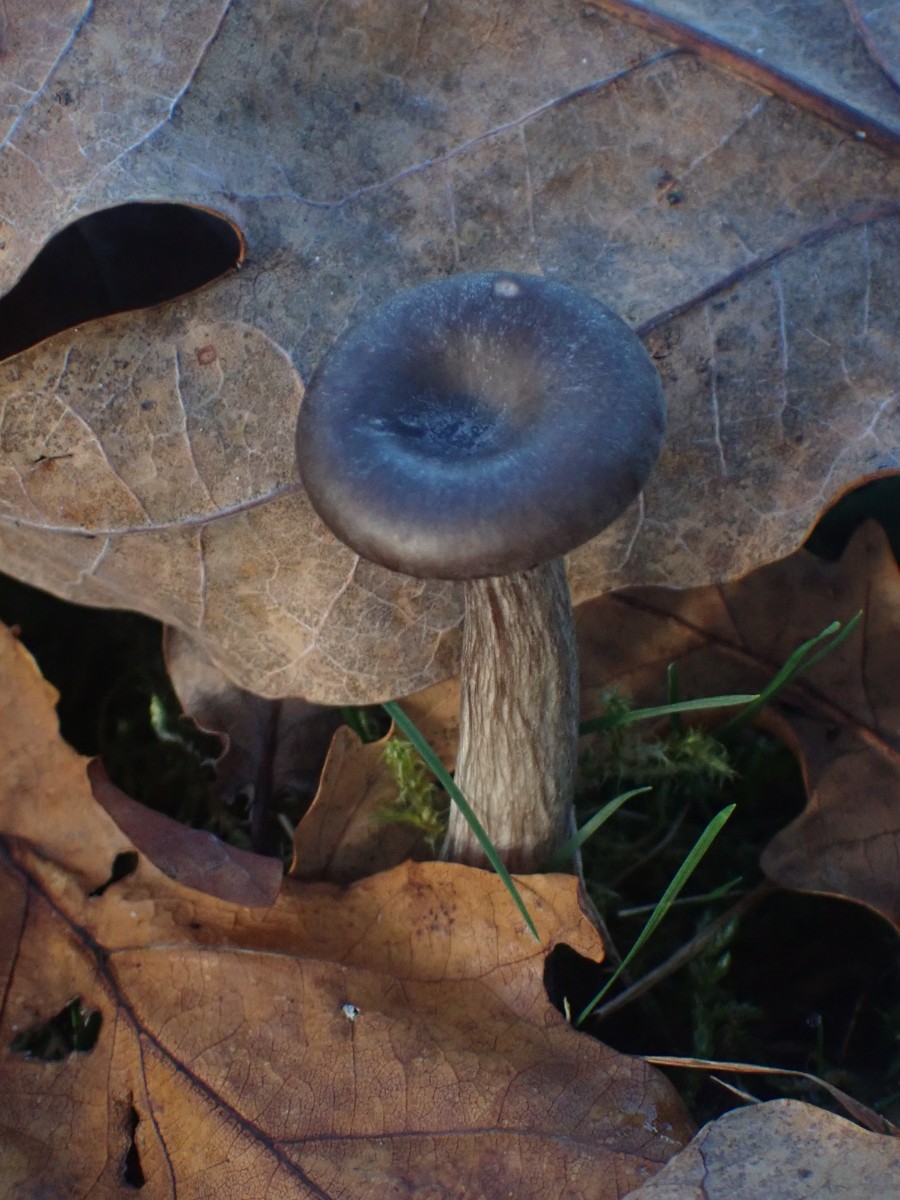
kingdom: Fungi
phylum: Basidiomycota
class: Agaricomycetes
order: Agaricales
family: Pseudoclitocybaceae
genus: Pseudoclitocybe
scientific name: Pseudoclitocybe cyathiformis
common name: almindelig bægertragthat
